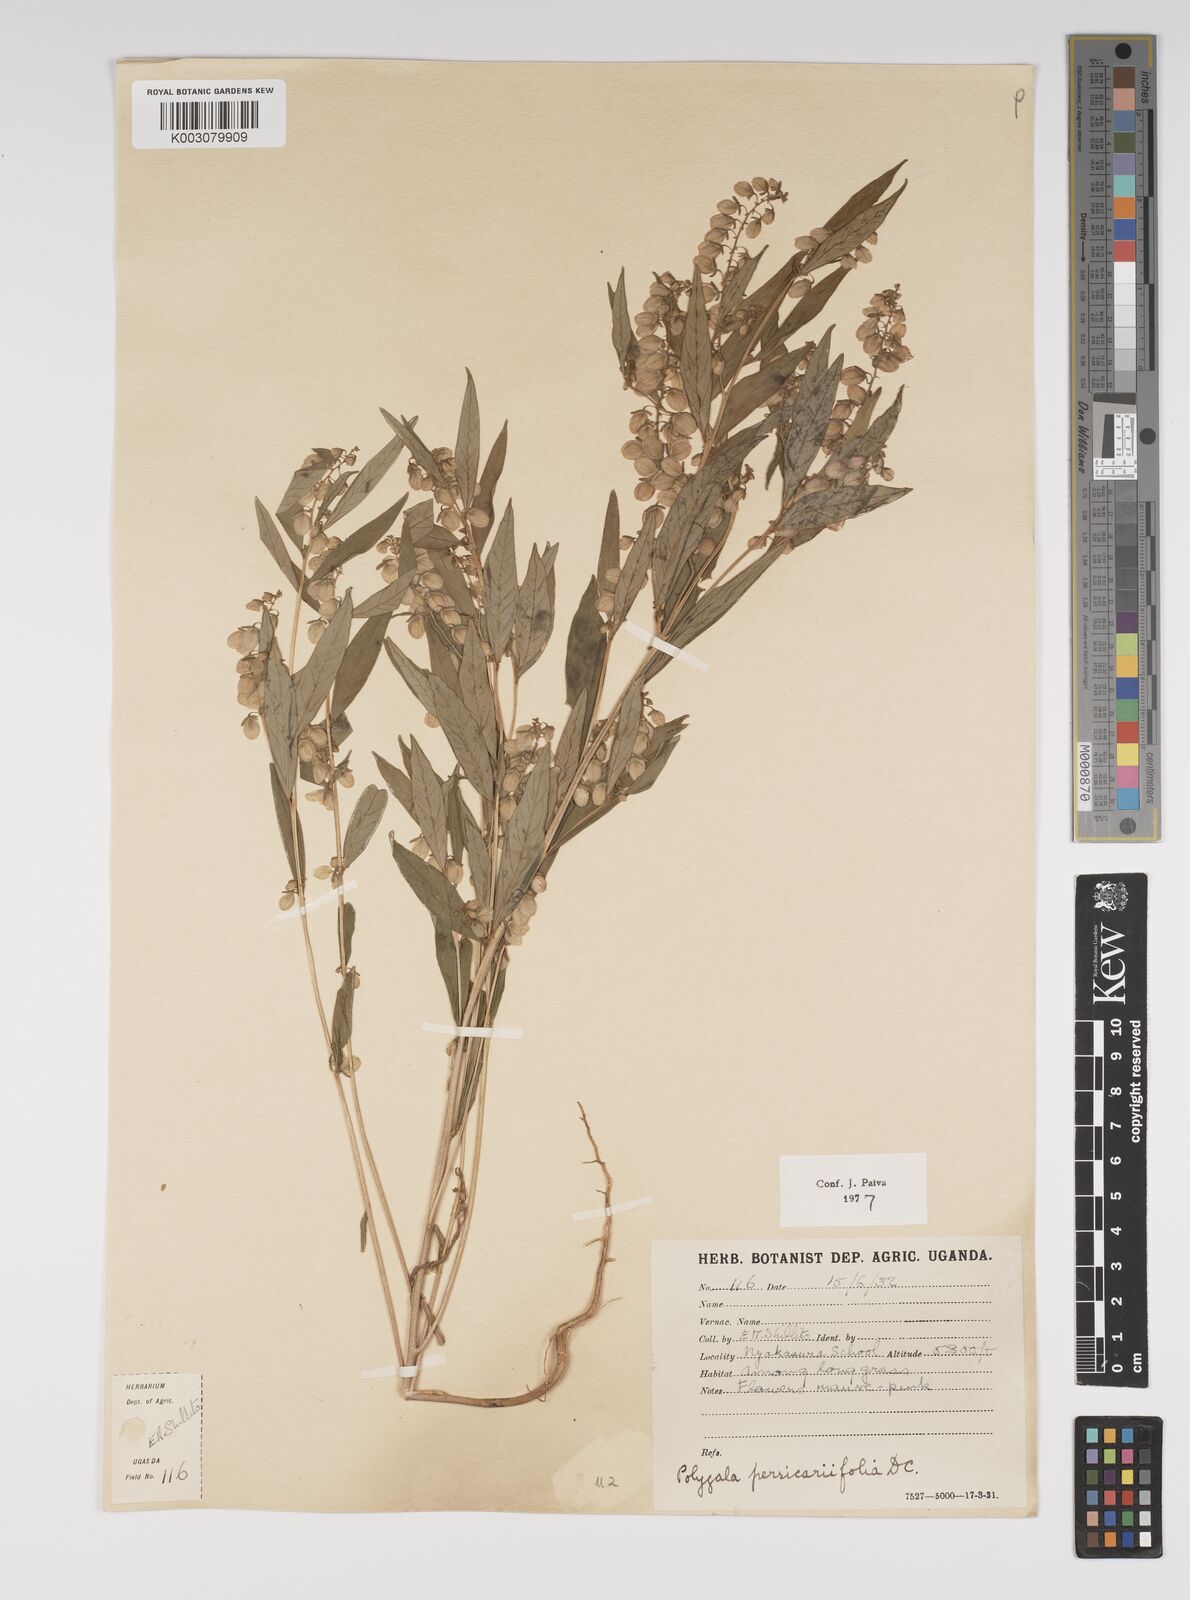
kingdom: Plantae
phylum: Tracheophyta
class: Magnoliopsida
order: Fabales
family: Polygalaceae
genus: Polygala
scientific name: Polygala persicariifolia
